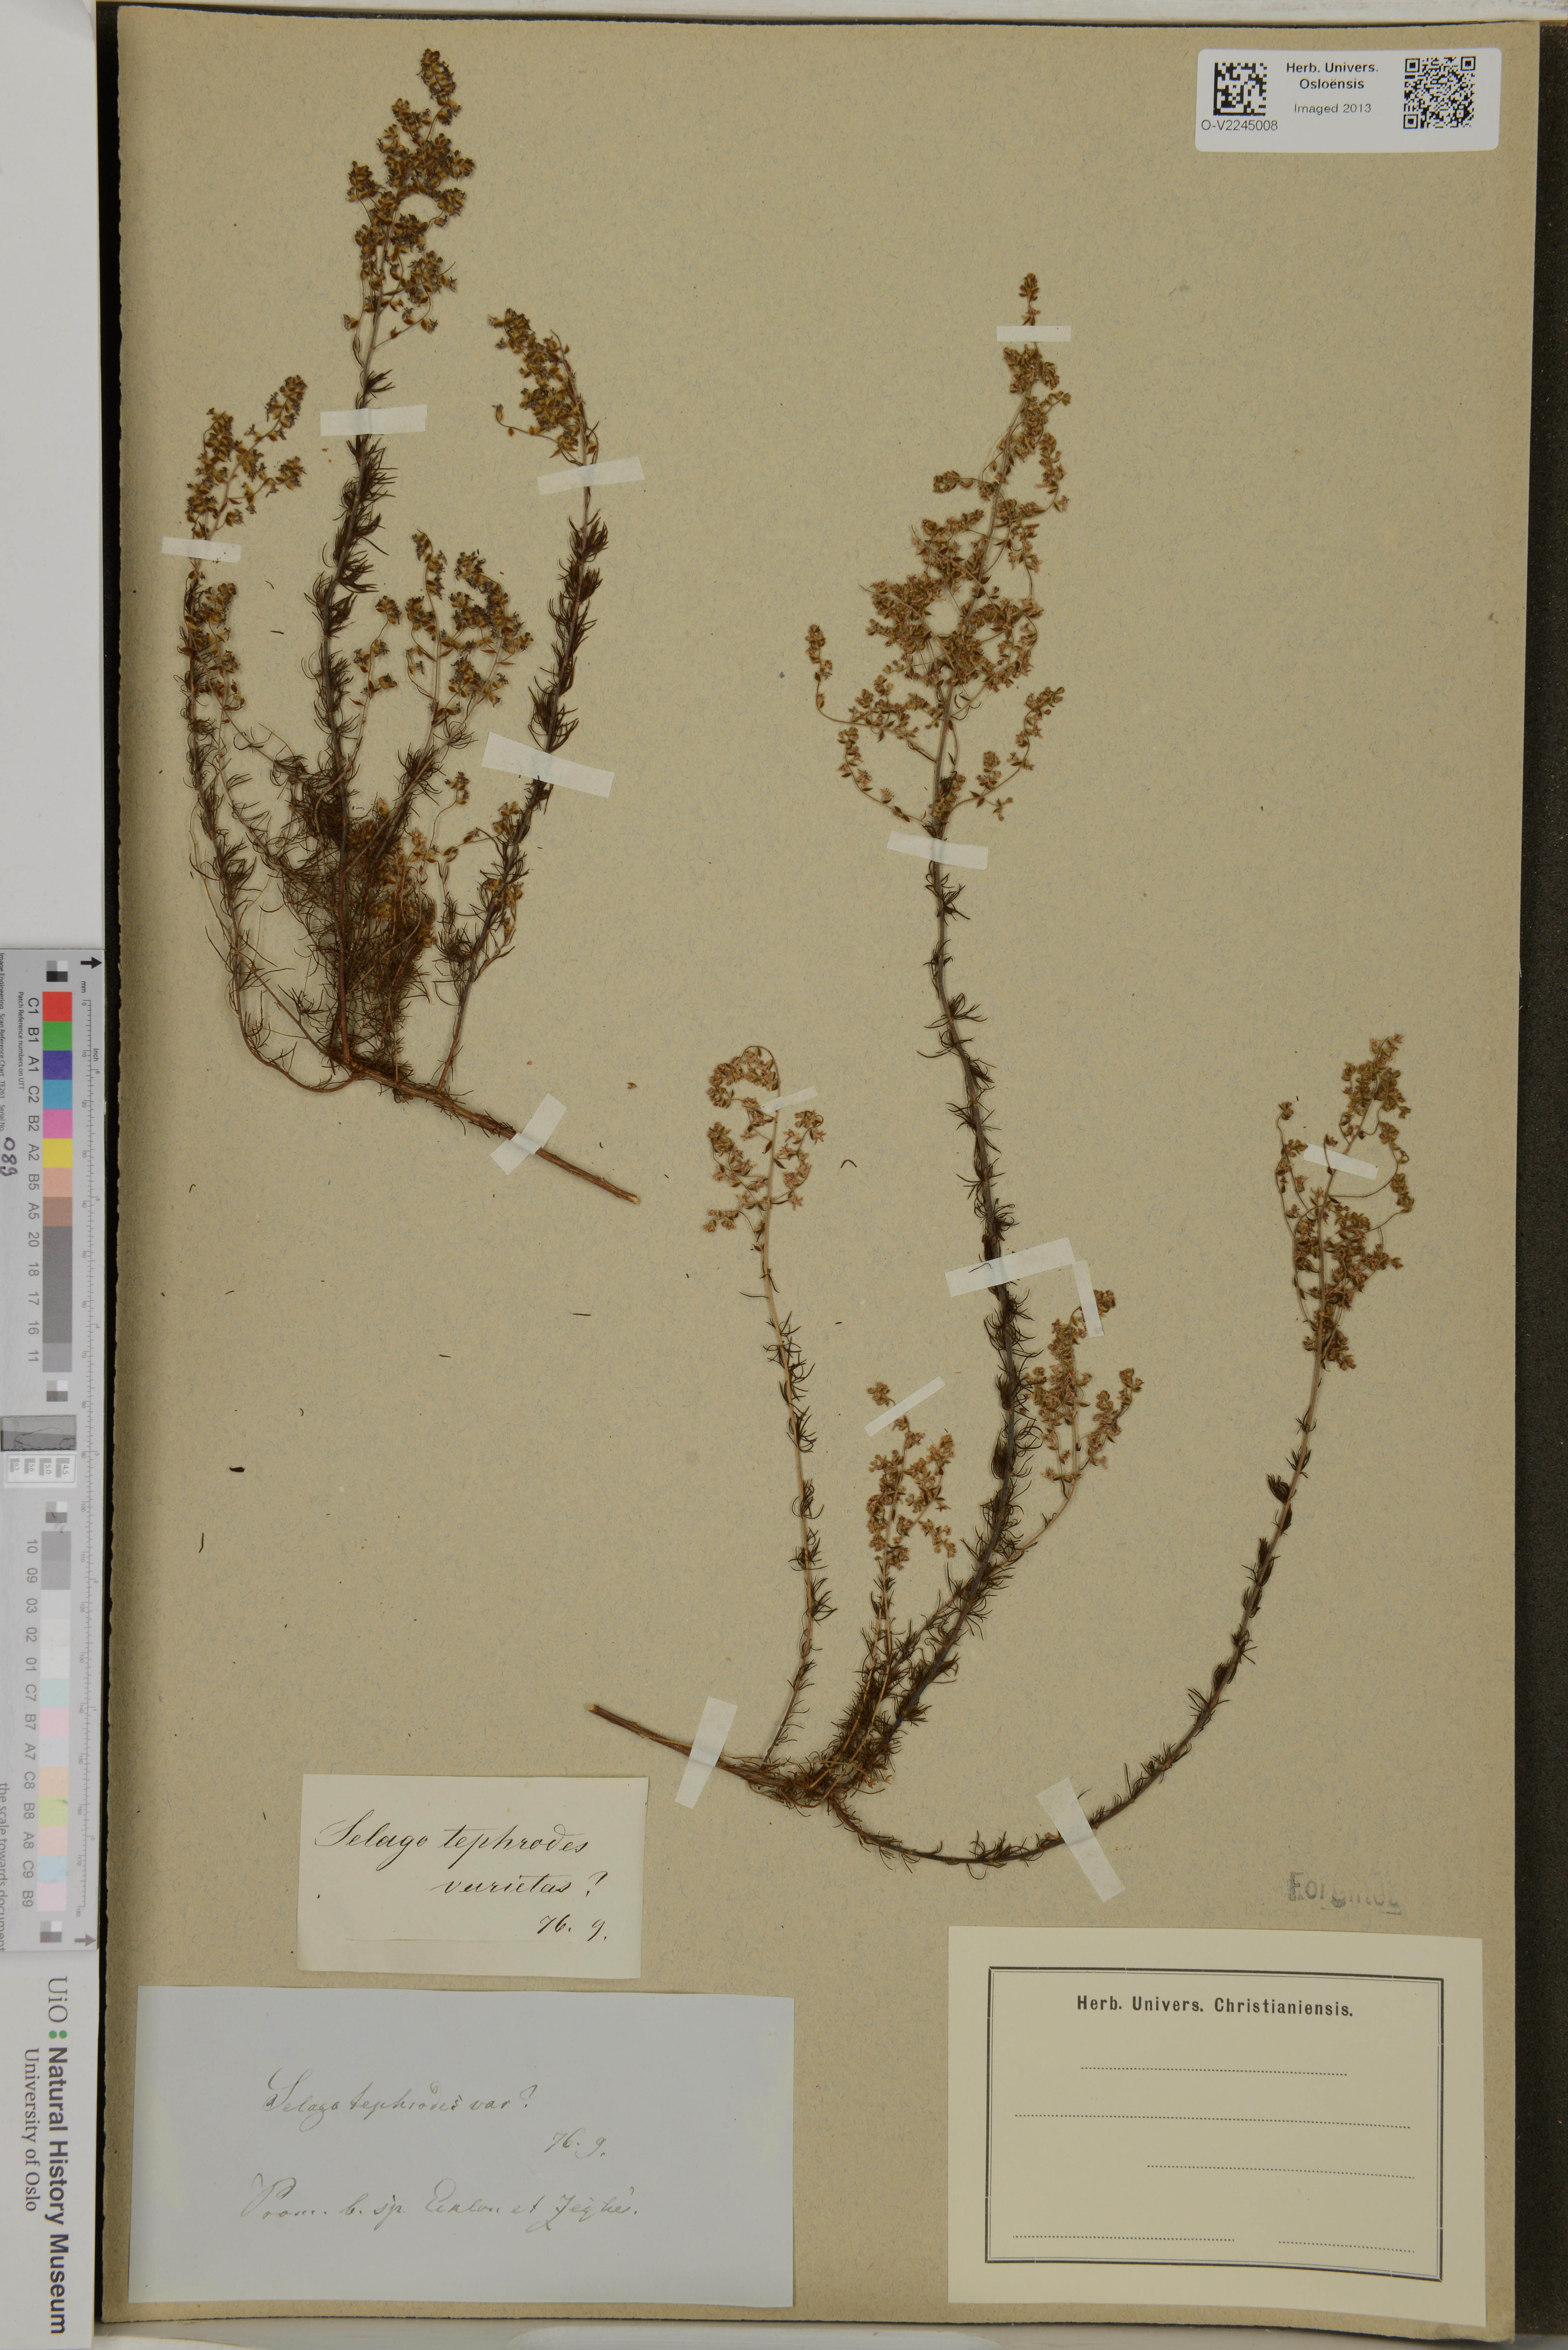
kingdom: Plantae
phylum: Tracheophyta
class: Magnoliopsida
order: Lamiales
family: Scrophulariaceae
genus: Selago
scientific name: Selago canescens
